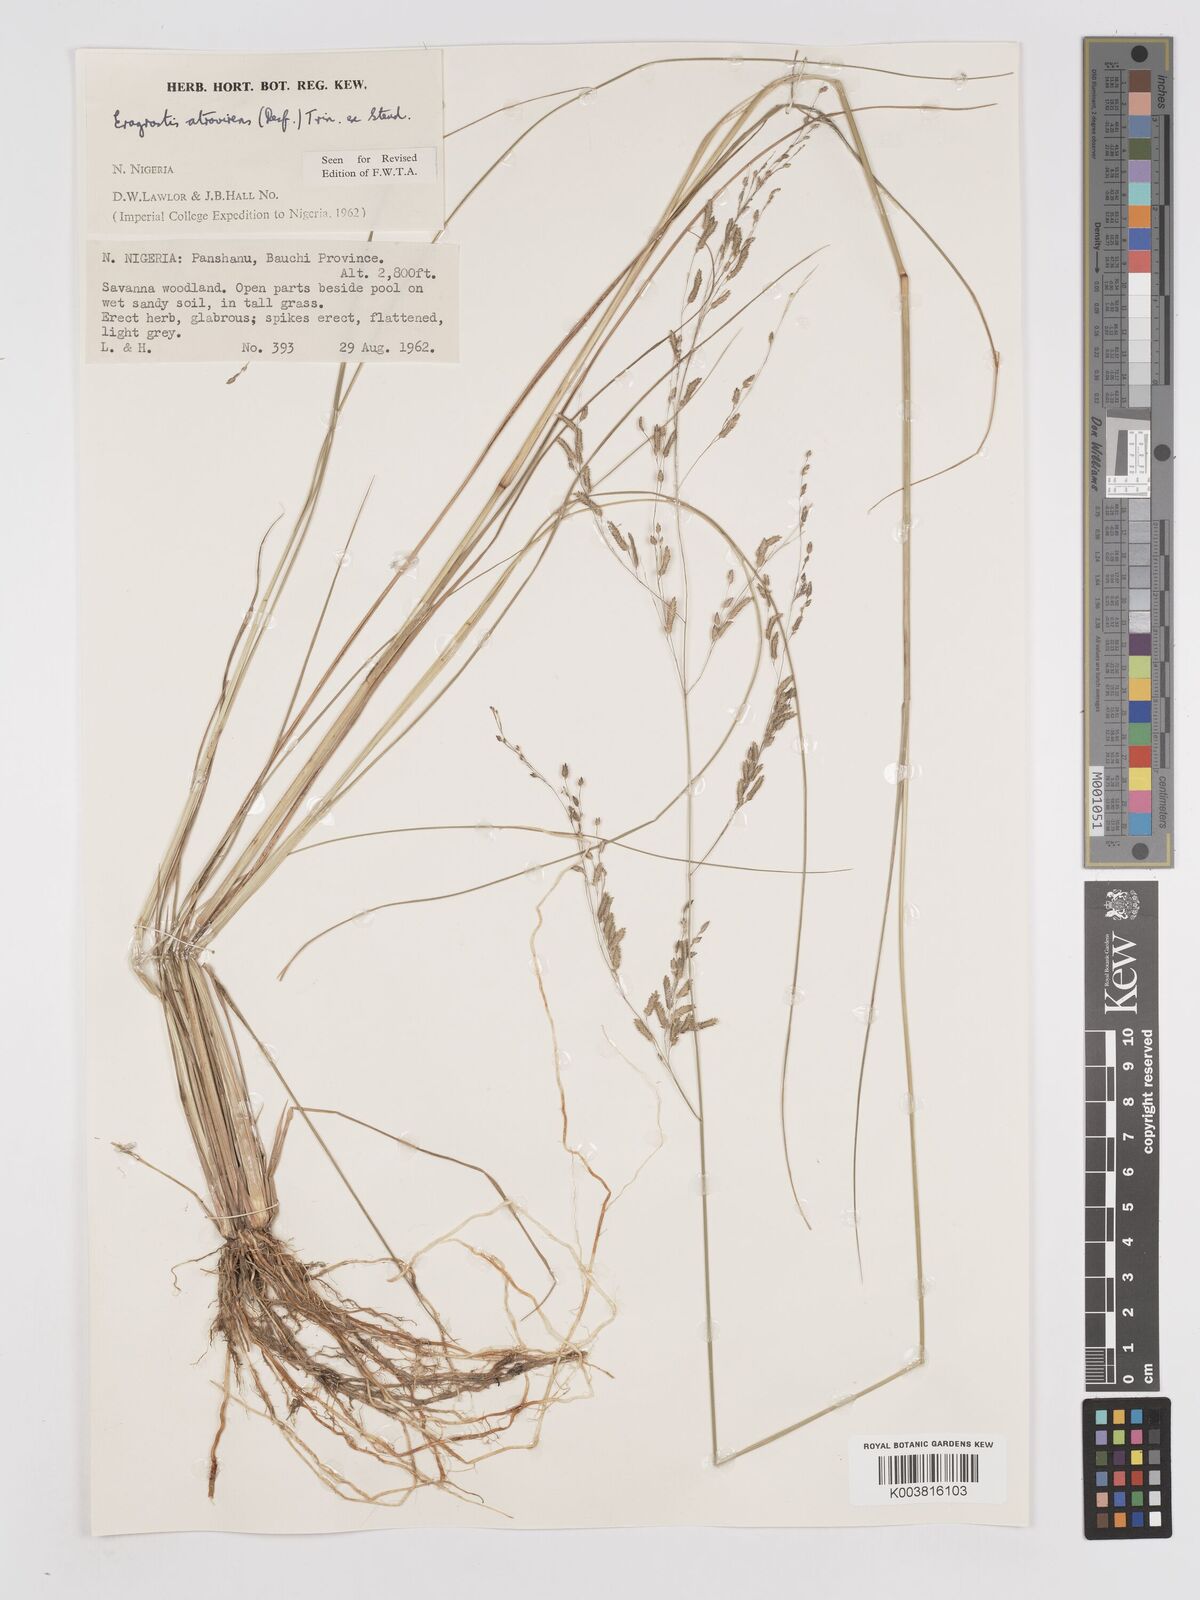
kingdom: Plantae
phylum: Tracheophyta
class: Liliopsida
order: Poales
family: Poaceae
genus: Eragrostis
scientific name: Eragrostis atrovirens
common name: Thalia lovegrass
